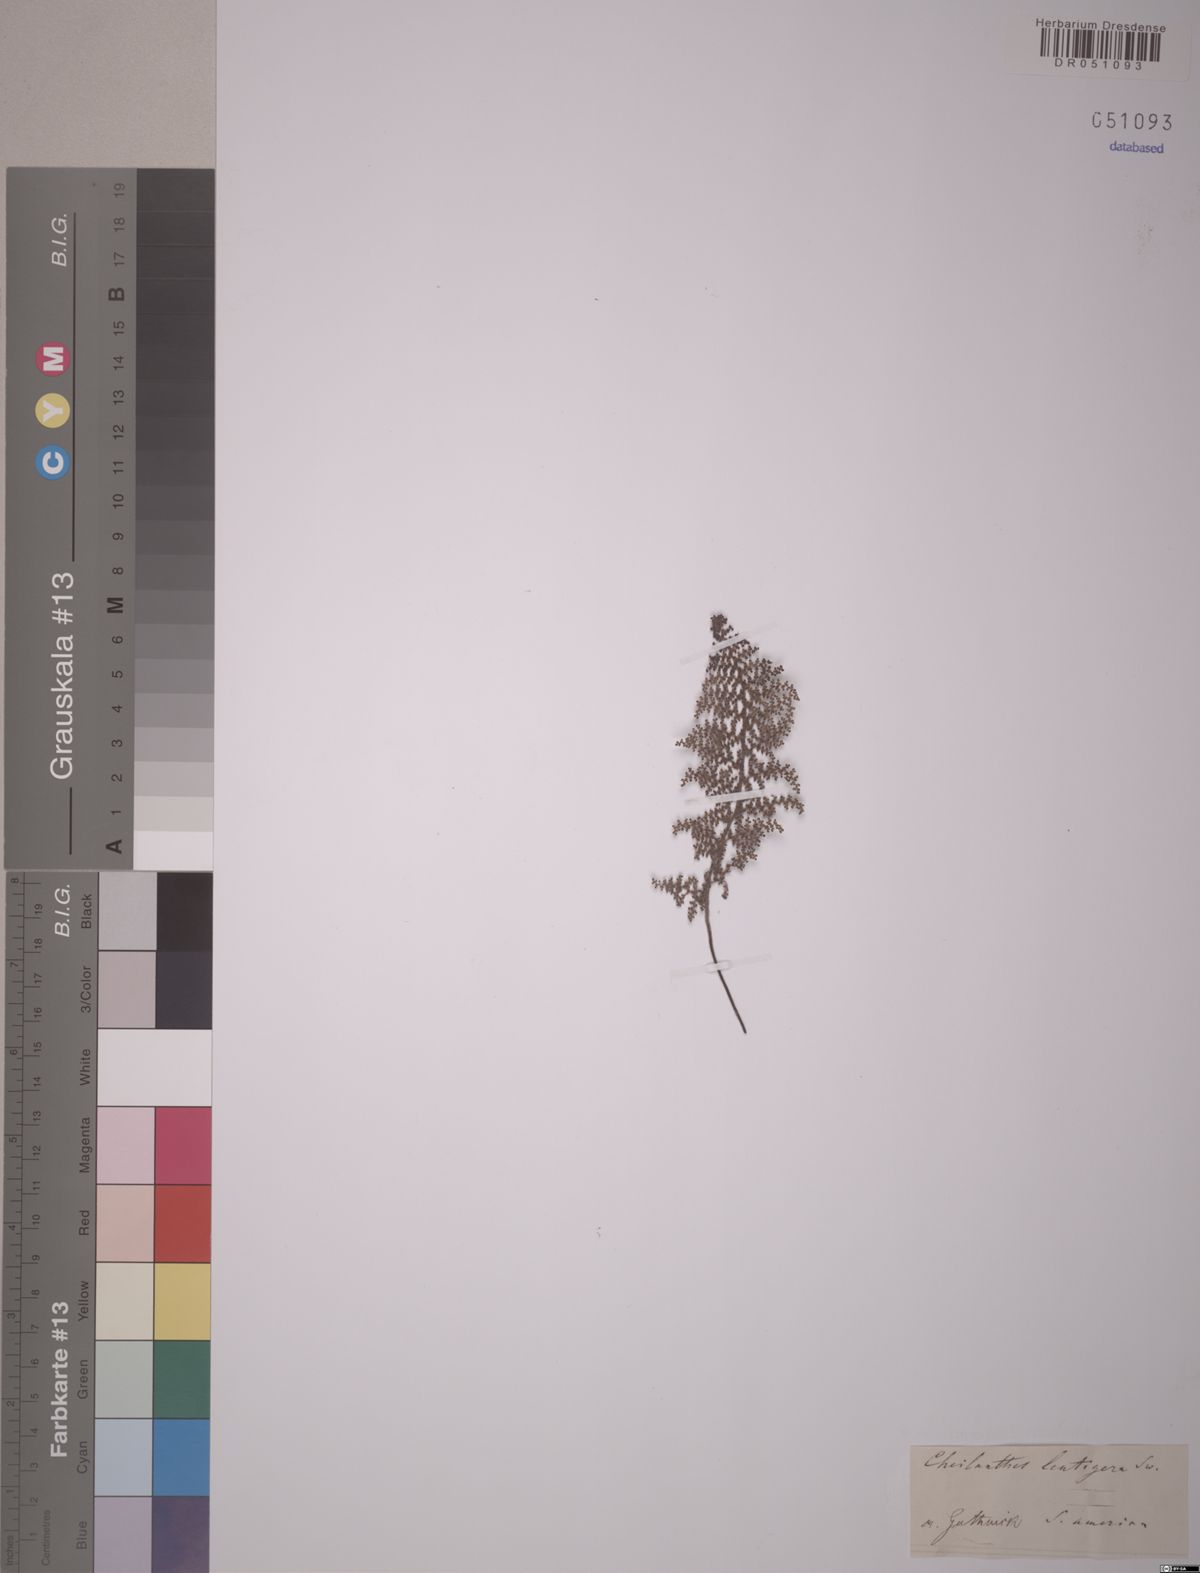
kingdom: Plantae
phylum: Tracheophyta
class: Polypodiopsida
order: Polypodiales
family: Pteridaceae
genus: Myriopteris
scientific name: Myriopteris lendigera
